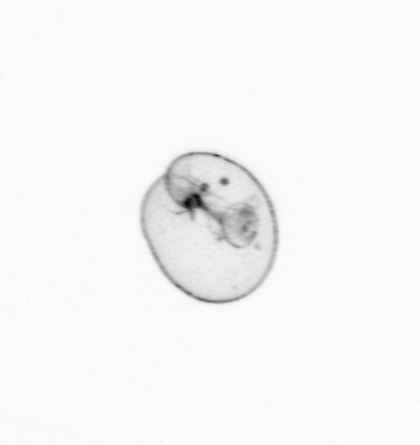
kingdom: Chromista
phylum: Myzozoa
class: Dinophyceae
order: Noctilucales
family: Noctilucaceae
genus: Noctiluca
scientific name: Noctiluca scintillans
